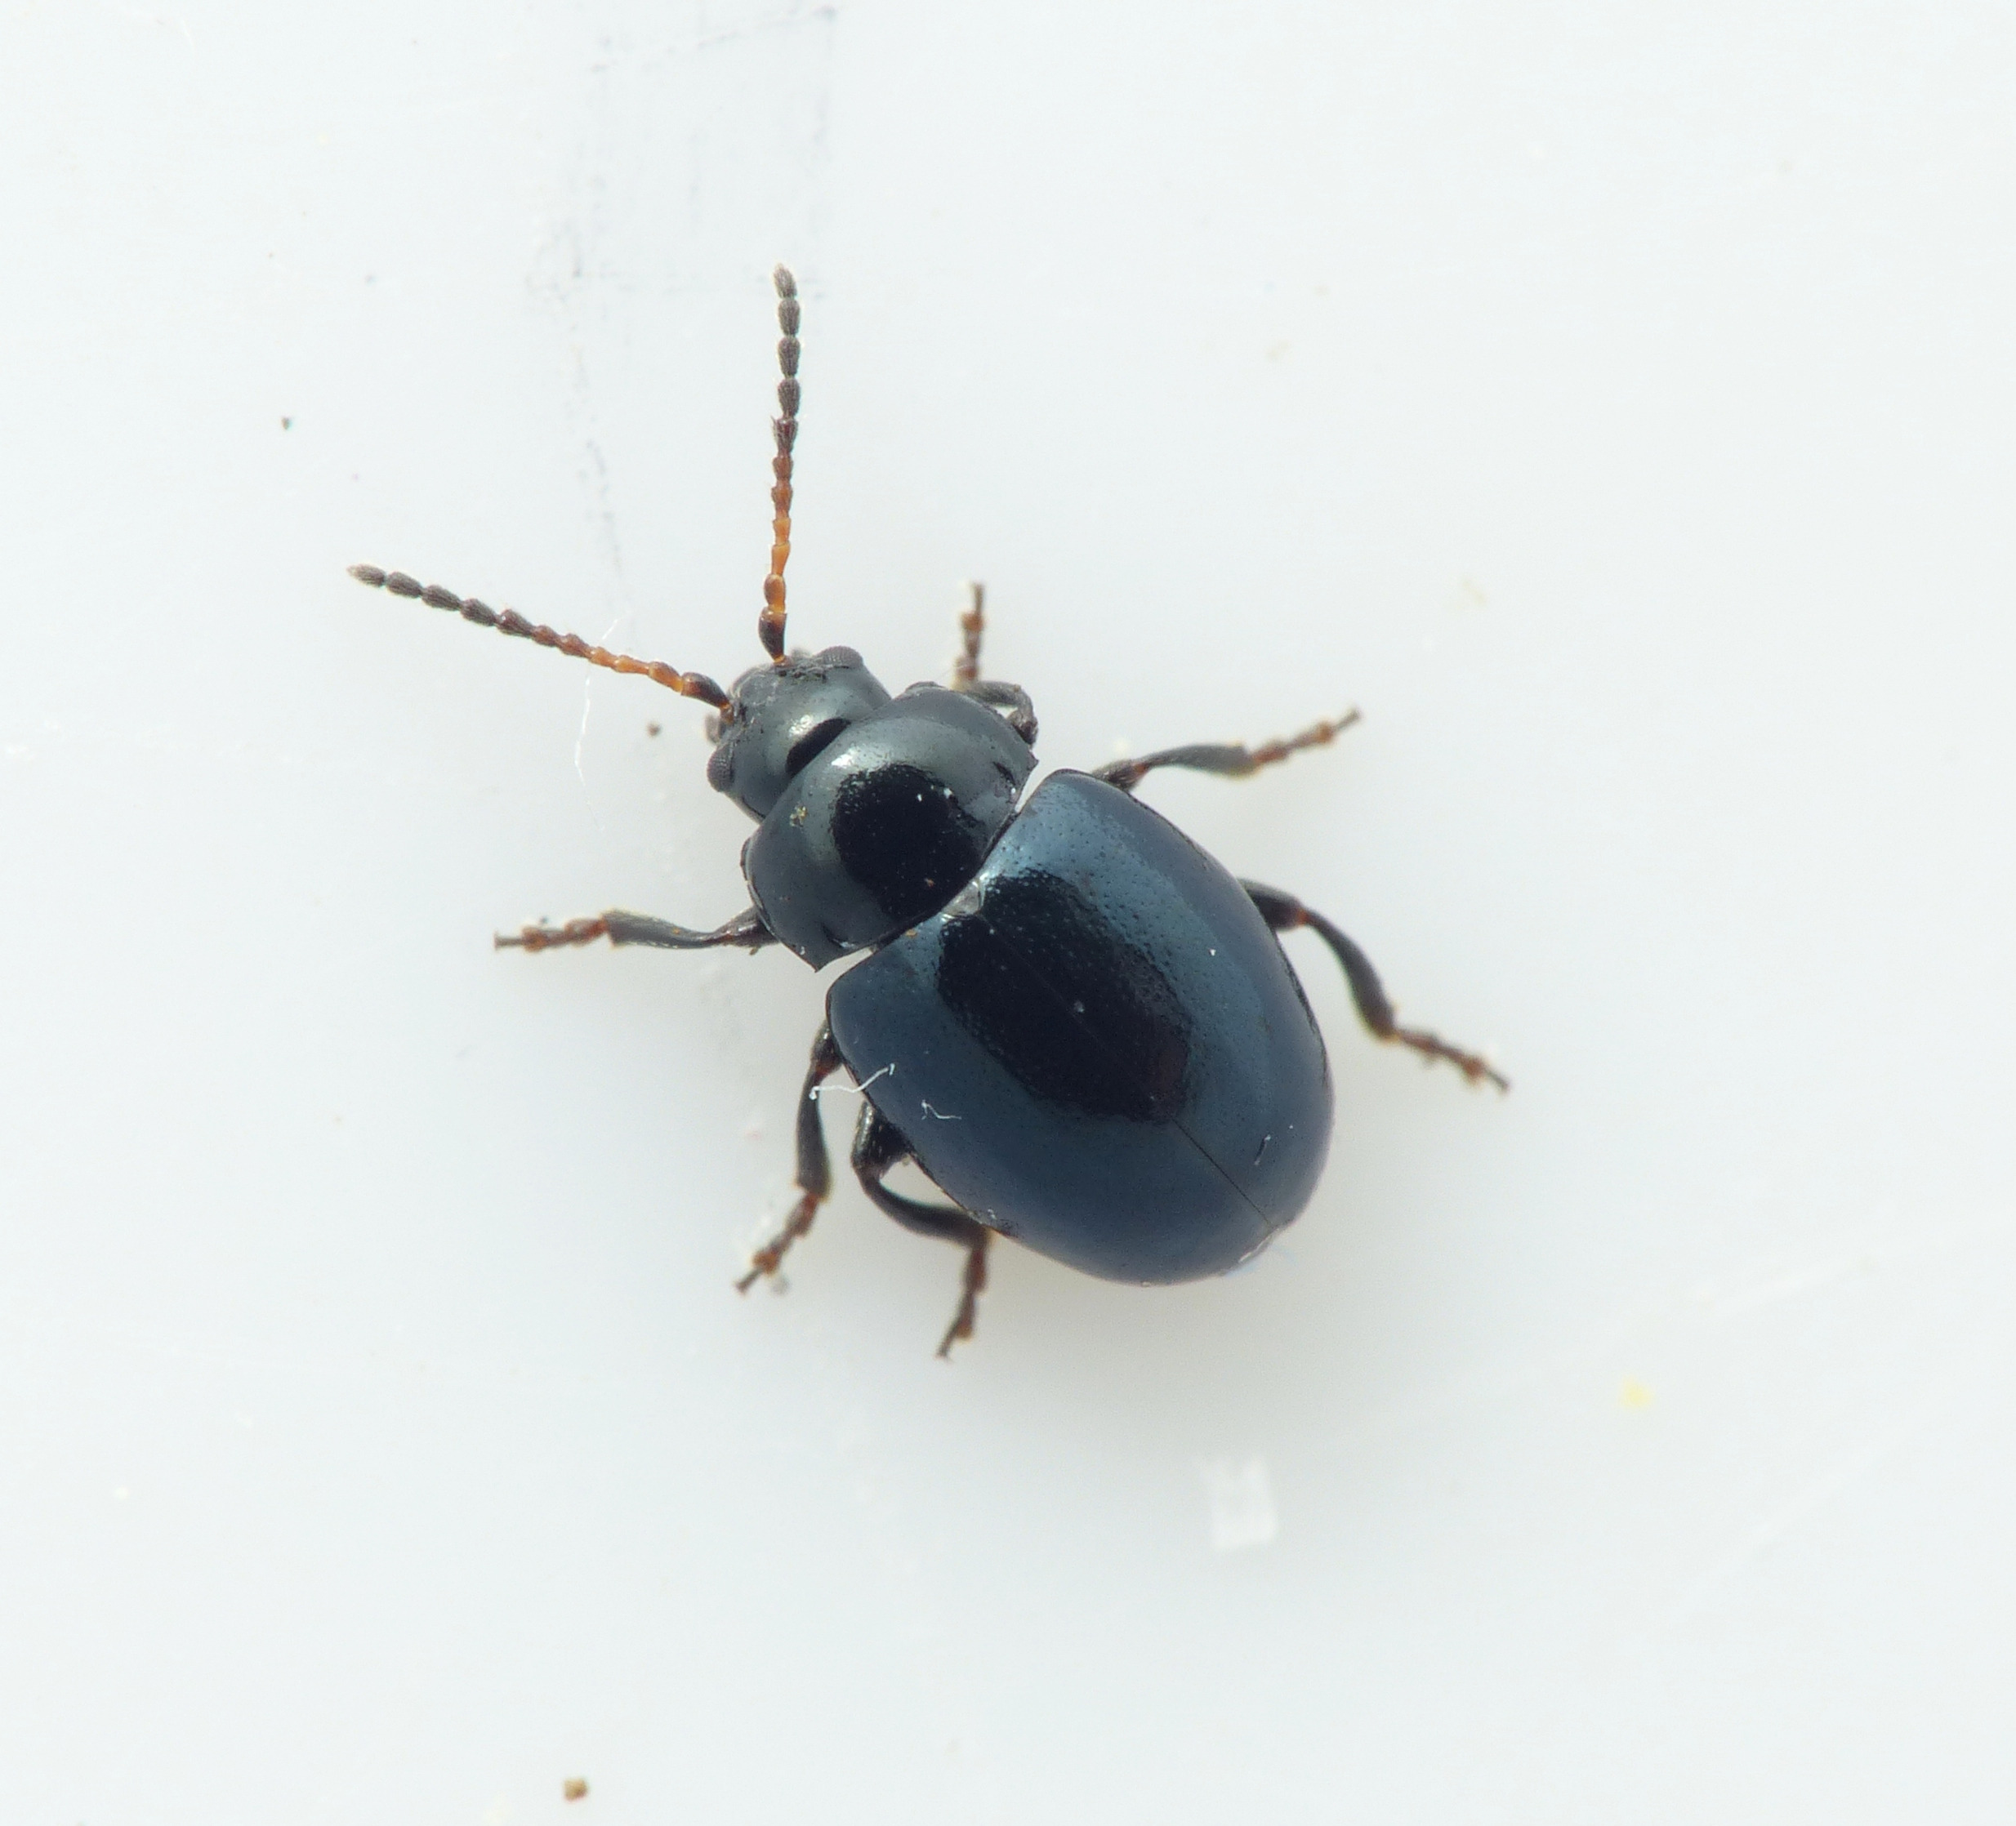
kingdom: Animalia
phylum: Arthropoda
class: Insecta
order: Coleoptera
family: Chrysomelidae
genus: Hermaeophaga
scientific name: Hermaeophaga mercurialis
